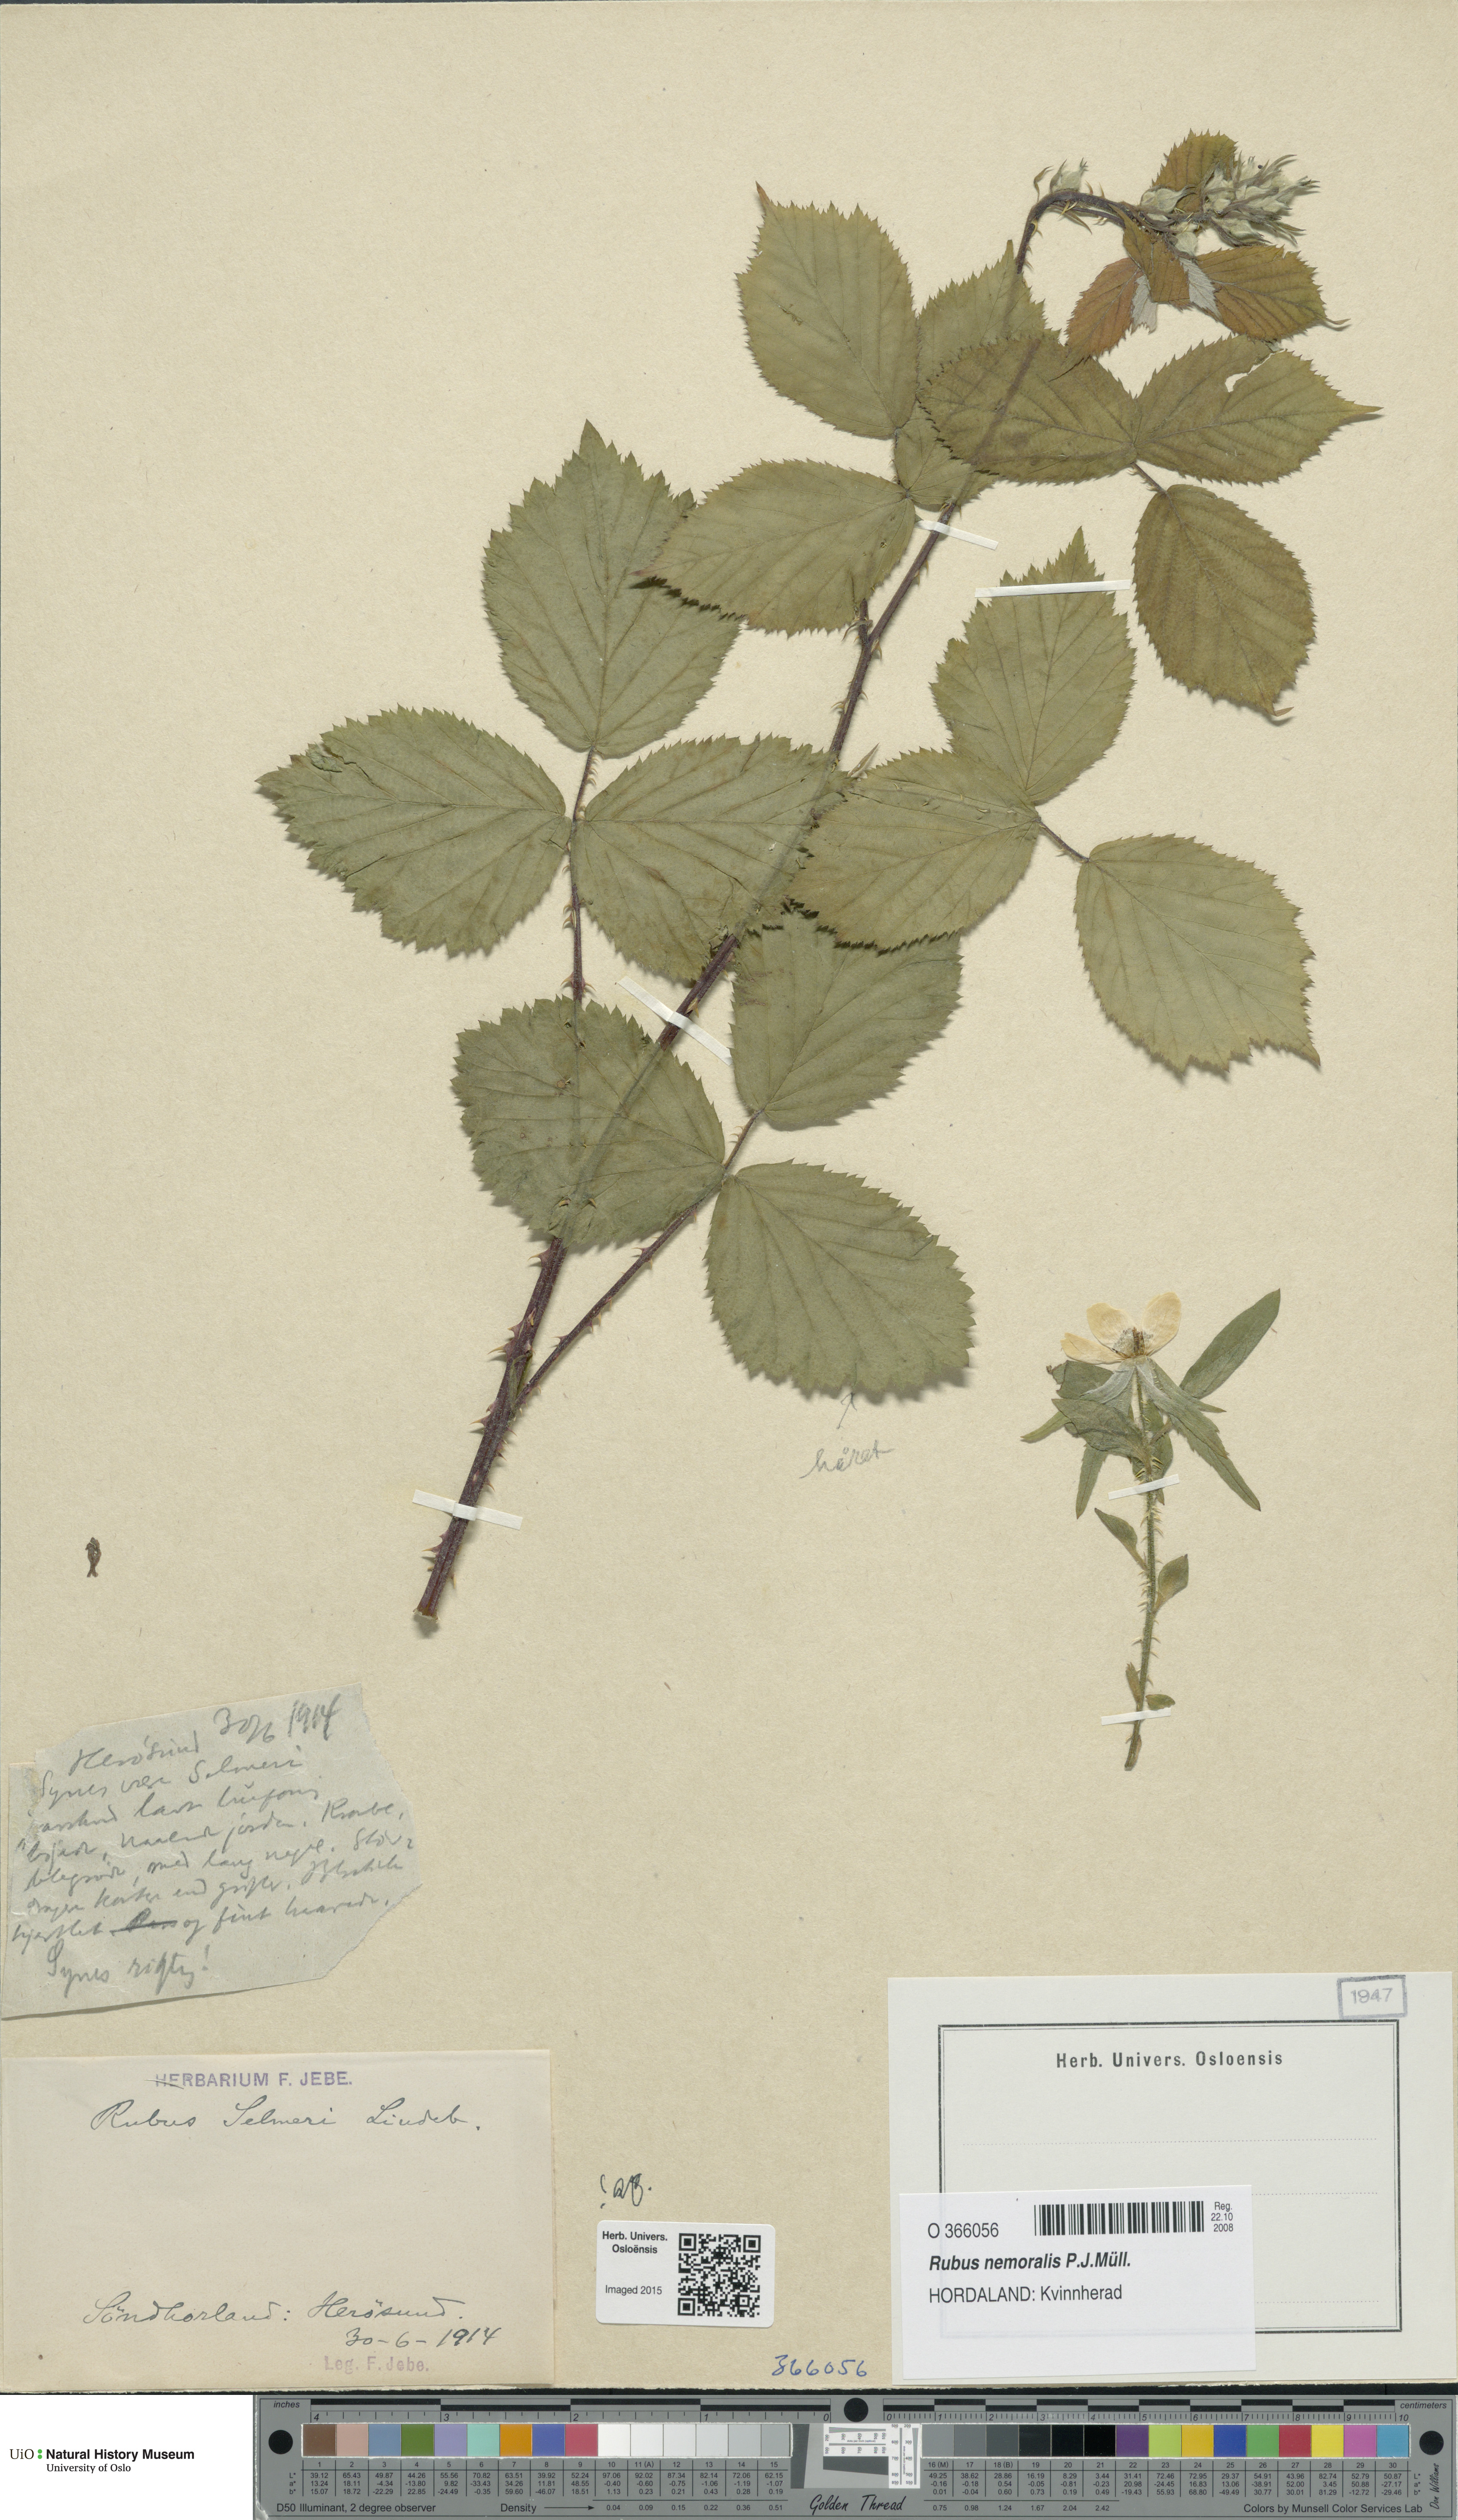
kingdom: Plantae
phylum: Tracheophyta
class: Magnoliopsida
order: Rosales
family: Rosaceae
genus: Rubus
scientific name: Rubus nemoralis
